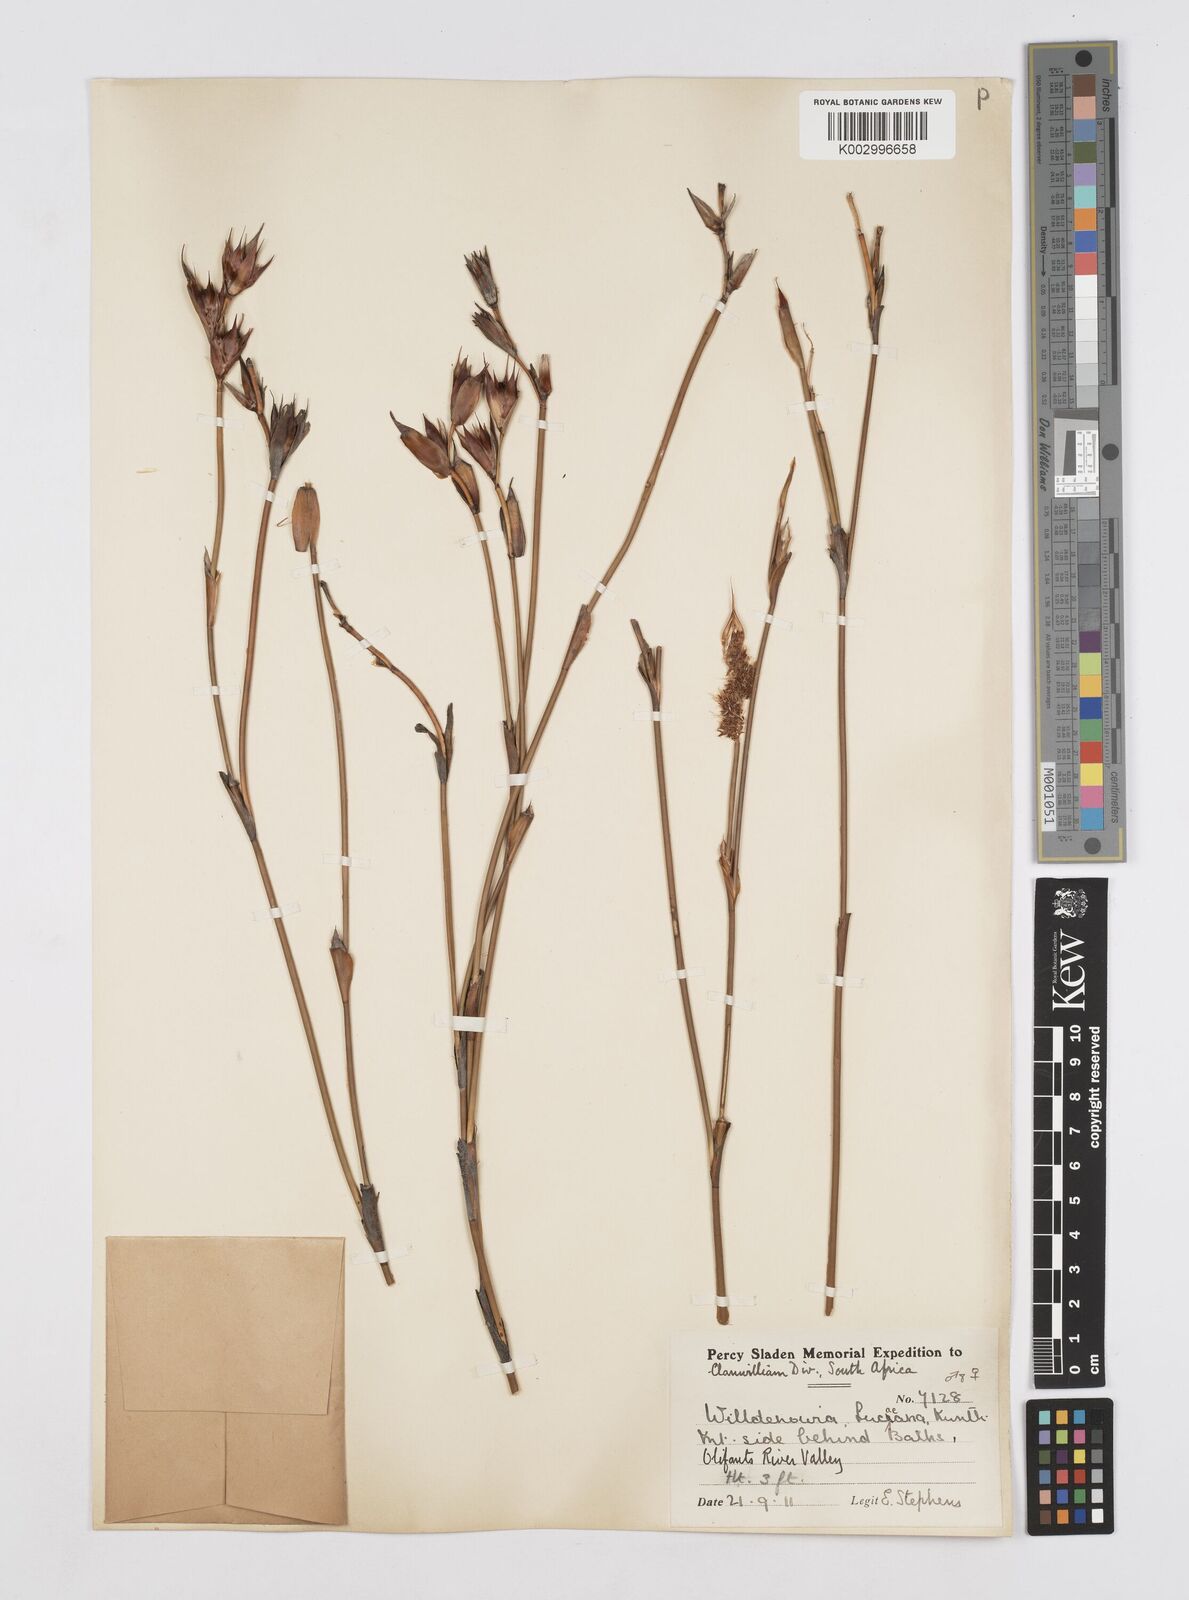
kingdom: Plantae
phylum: Tracheophyta
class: Liliopsida
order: Poales
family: Restionaceae
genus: Willdenowia
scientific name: Willdenowia glomerata
